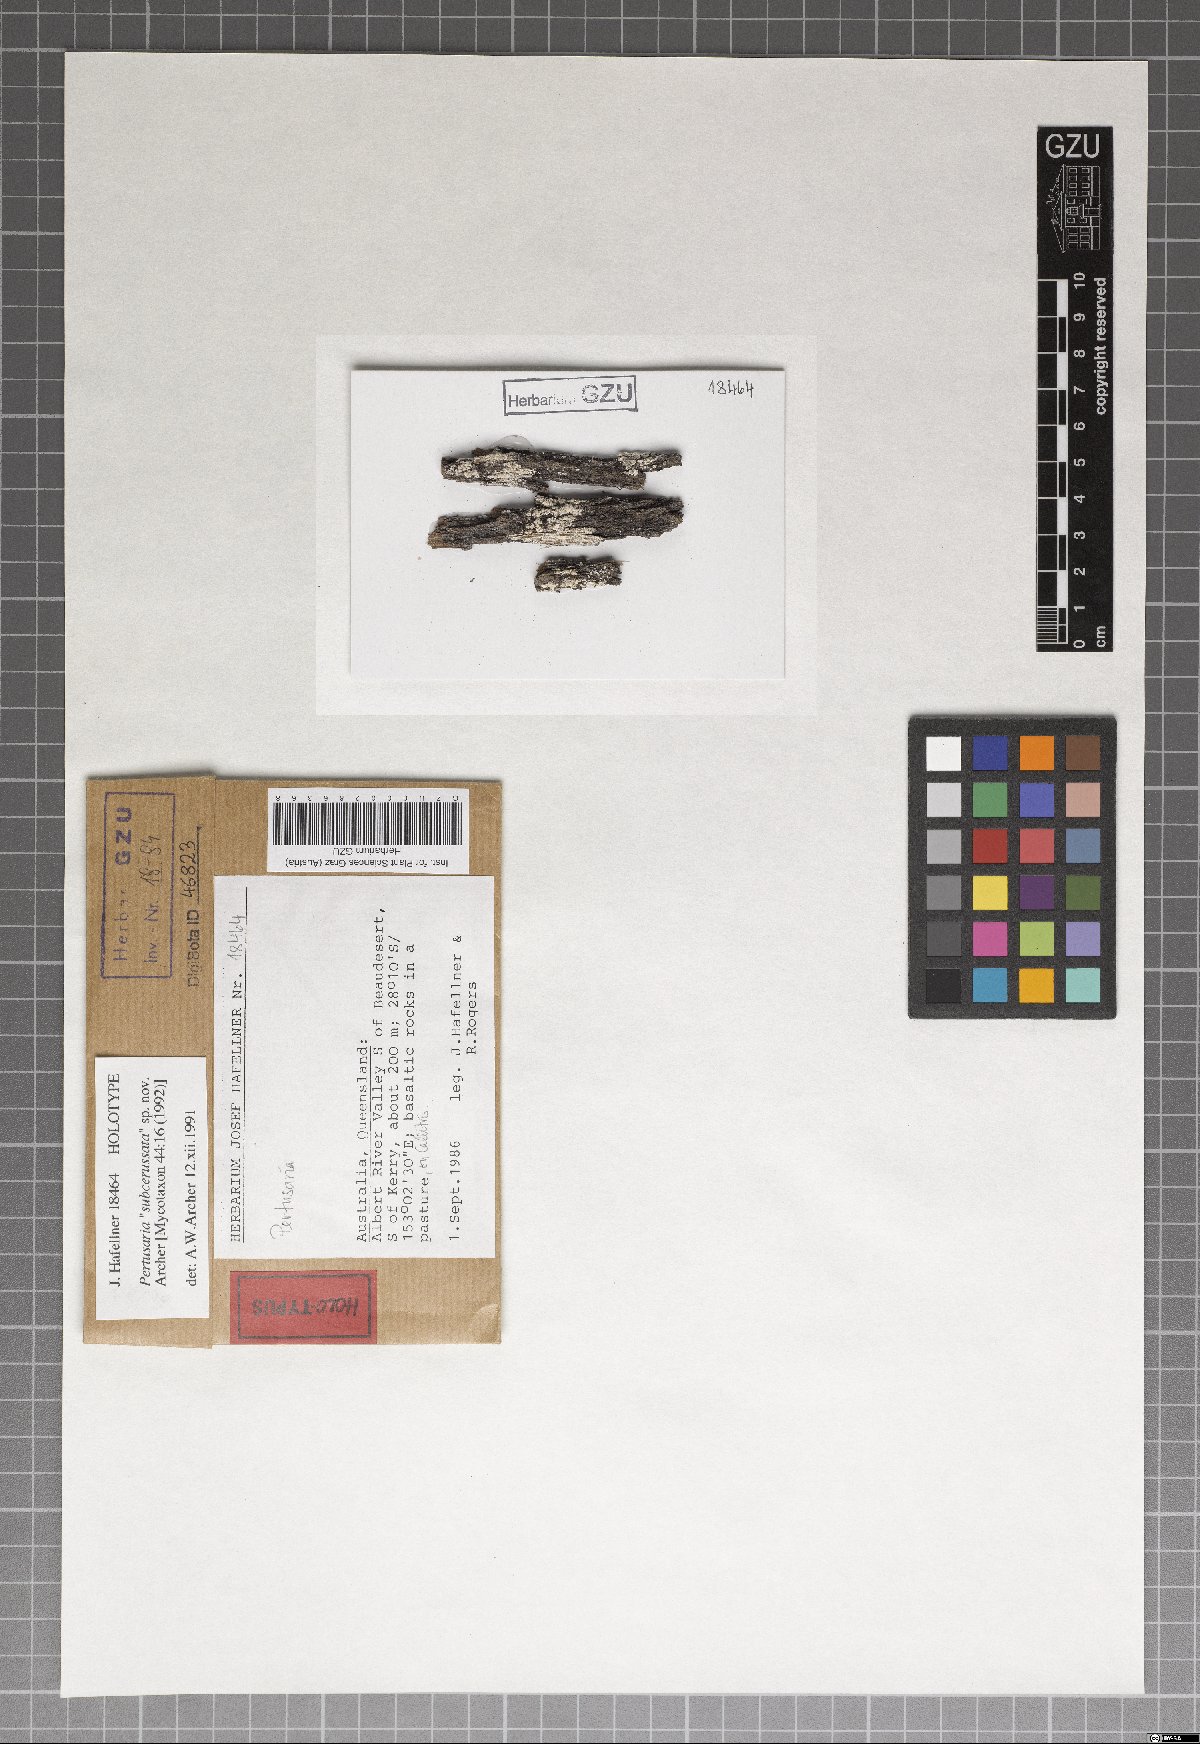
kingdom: Fungi
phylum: Ascomycota
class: Lecanoromycetes
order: Pertusariales
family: Pertusariaceae
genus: Pertusaria
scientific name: Pertusaria subcerussata
